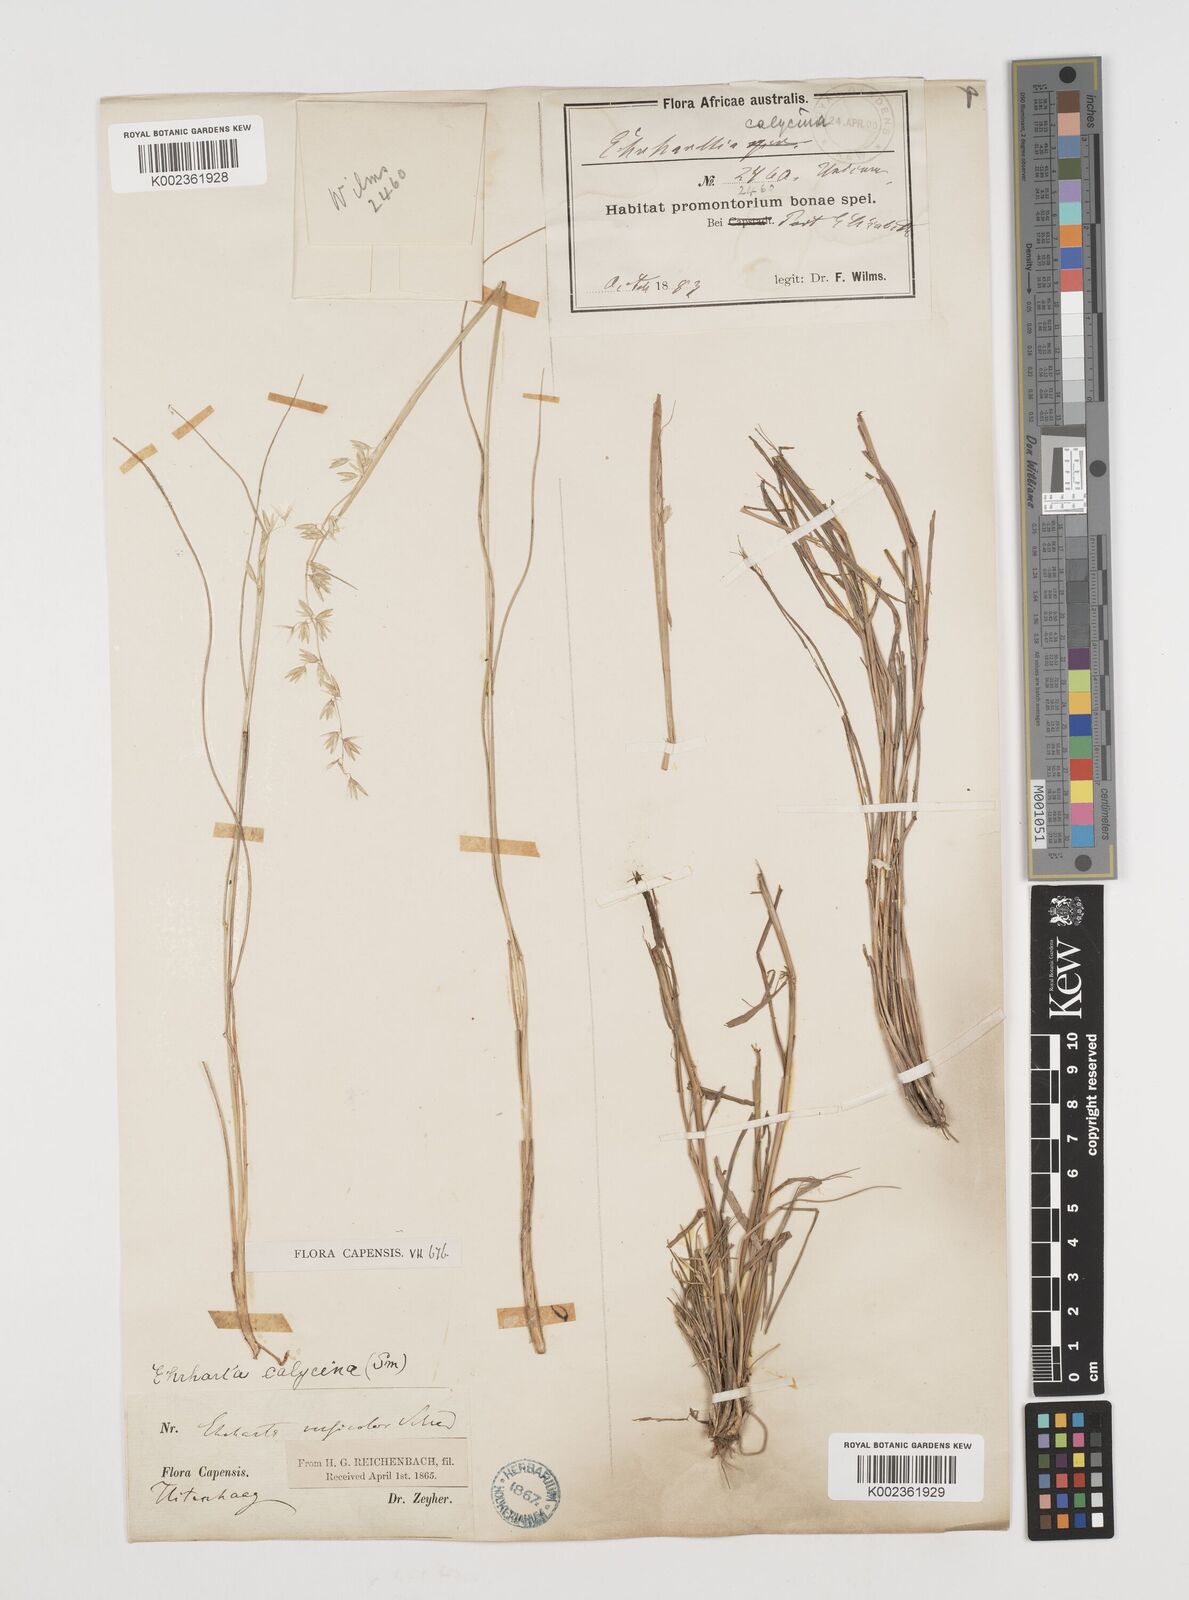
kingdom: Plantae
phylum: Tracheophyta
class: Liliopsida
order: Poales
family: Poaceae
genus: Ehrharta
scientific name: Ehrharta calycina
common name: Perennial veldtgrass
